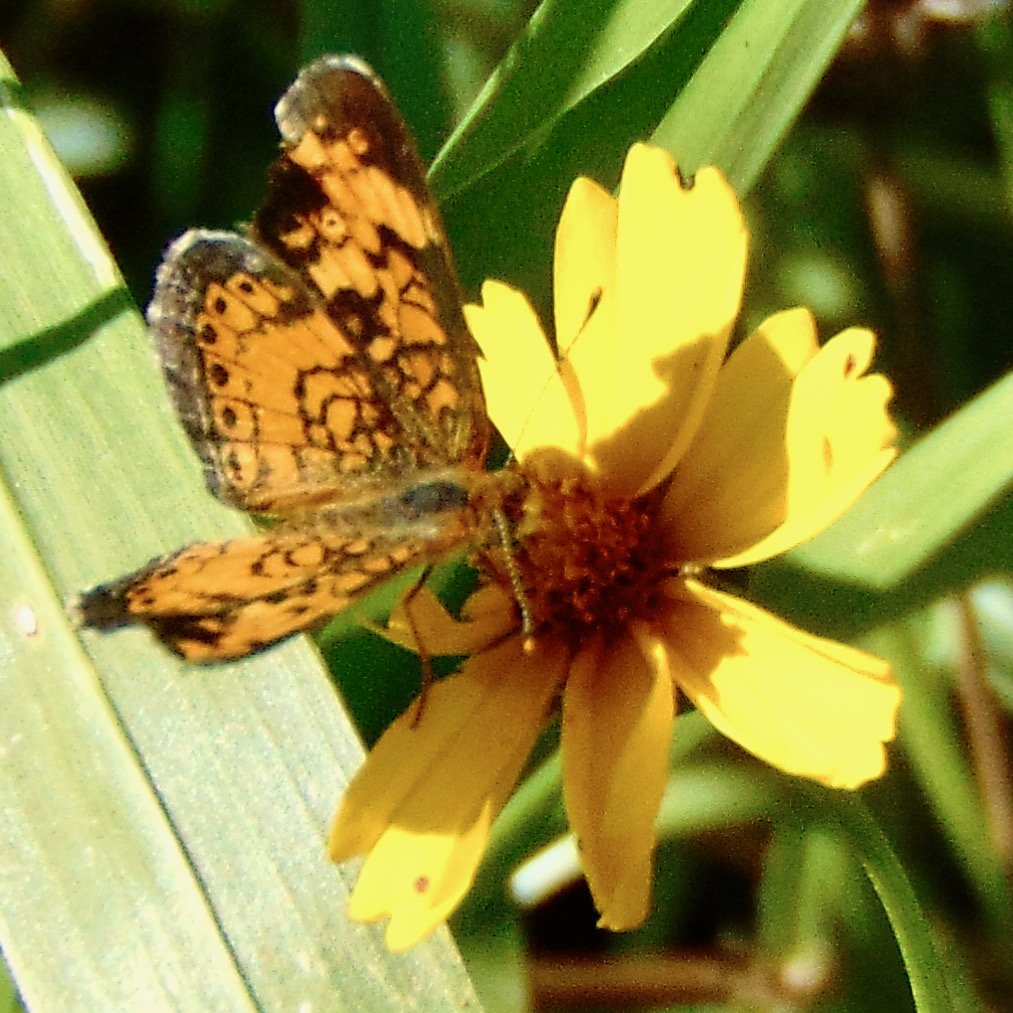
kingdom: Animalia
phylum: Arthropoda
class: Insecta
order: Lepidoptera
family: Nymphalidae
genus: Phyciodes
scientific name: Phyciodes tharos
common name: Pearl Crescent
